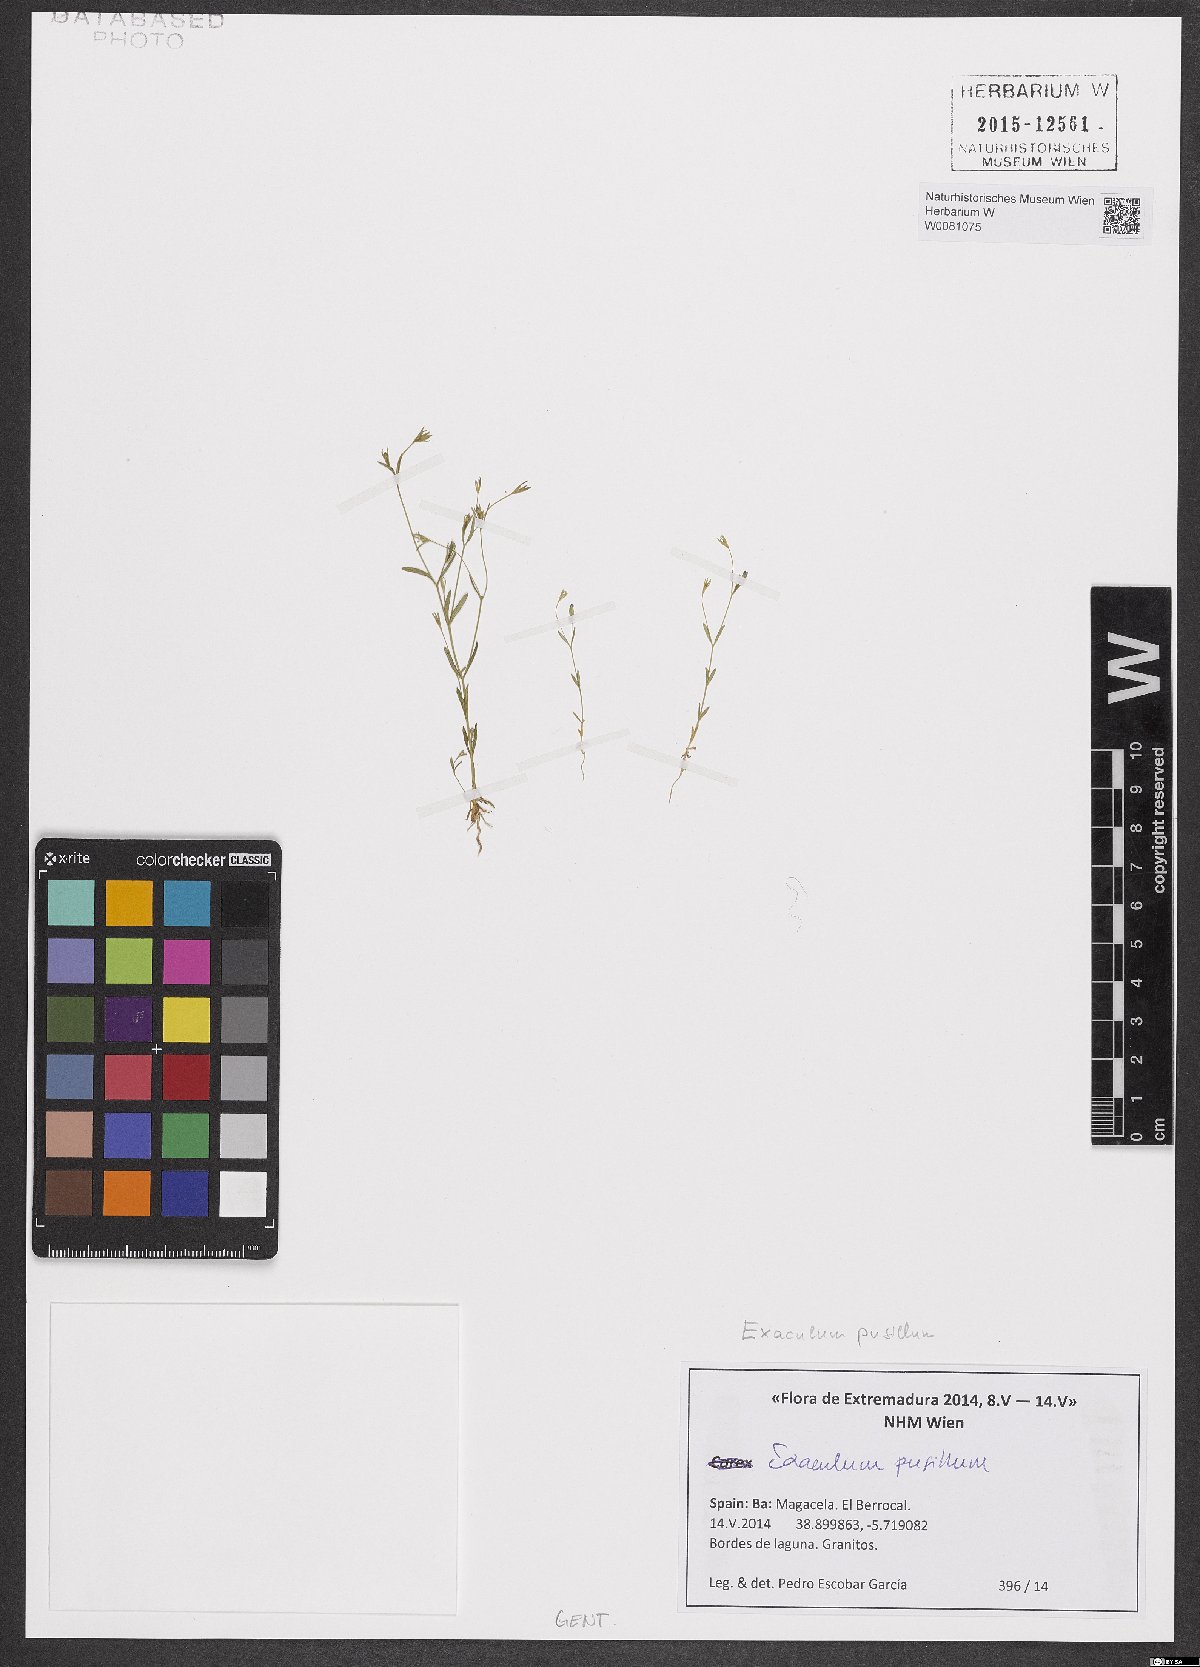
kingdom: Plantae
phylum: Tracheophyta
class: Magnoliopsida
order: Gentianales
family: Gentianaceae
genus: Exaculum
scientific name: Exaculum pusillum
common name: Guernsey centaury
